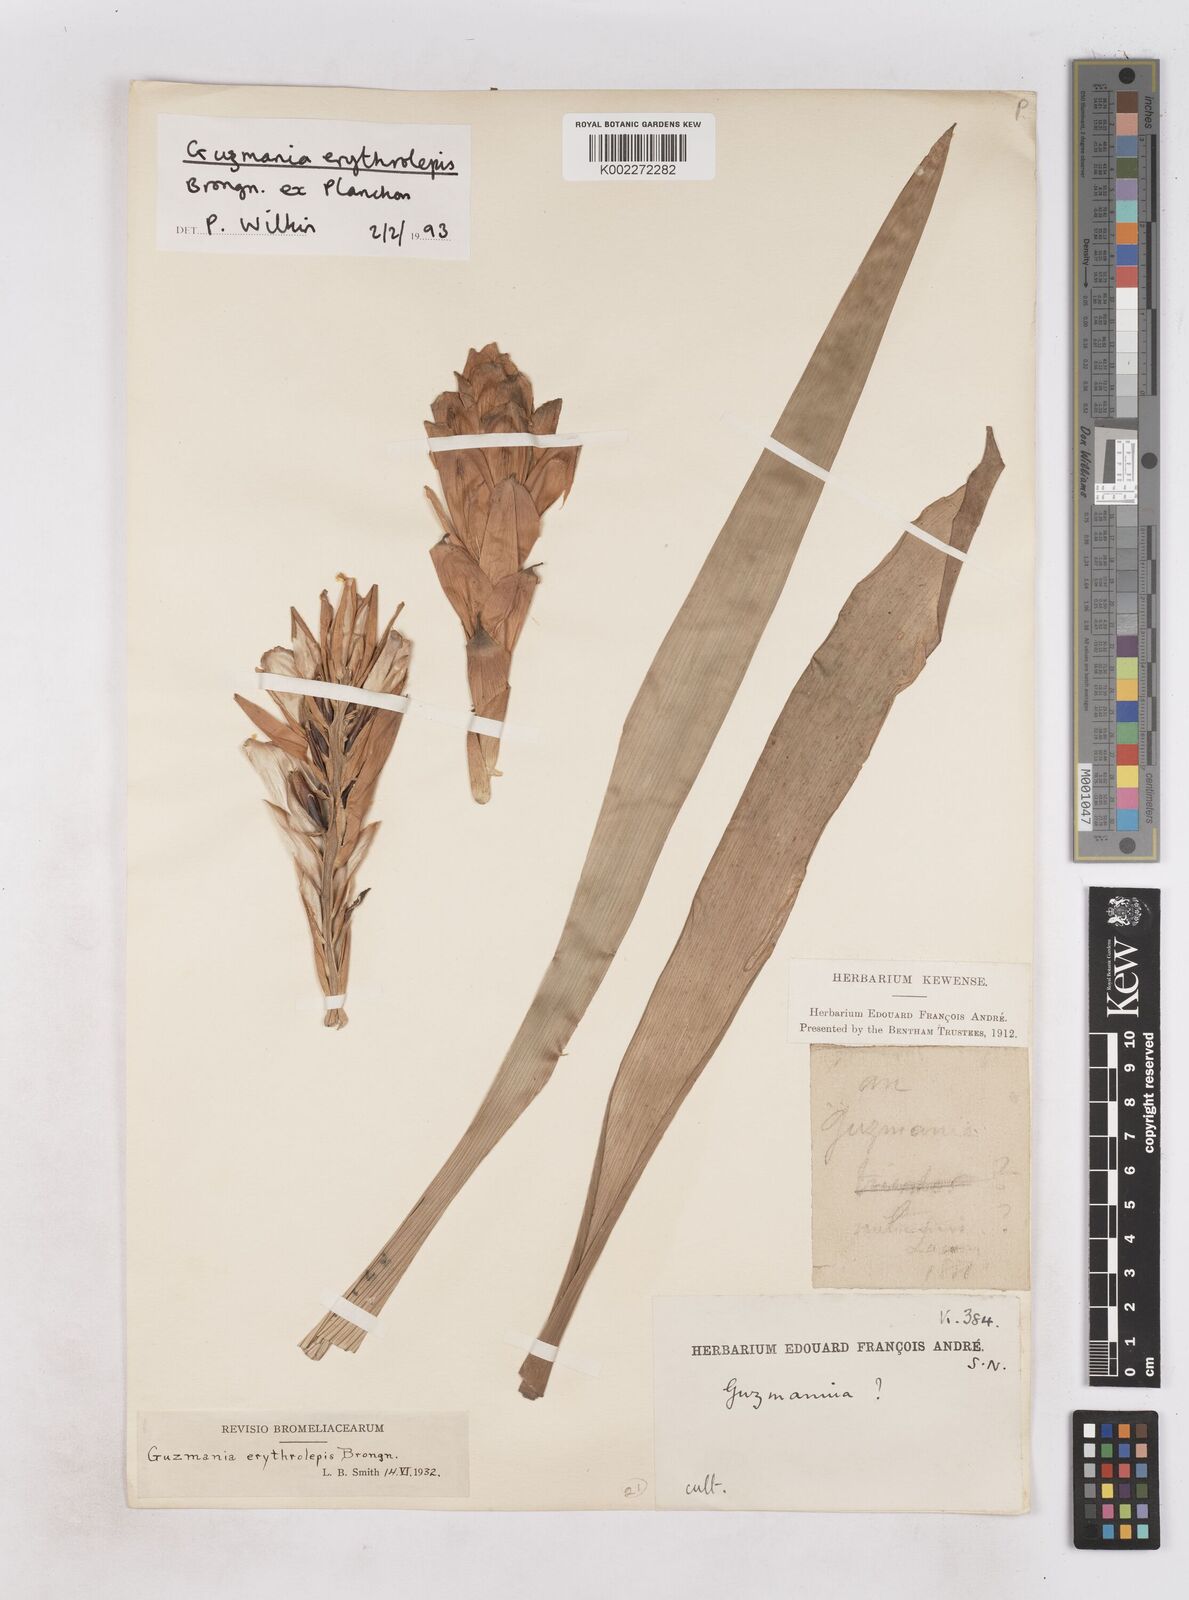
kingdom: Plantae
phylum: Tracheophyta
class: Liliopsida
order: Poales
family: Bromeliaceae
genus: Guzmania
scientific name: Guzmania erythrolepis
